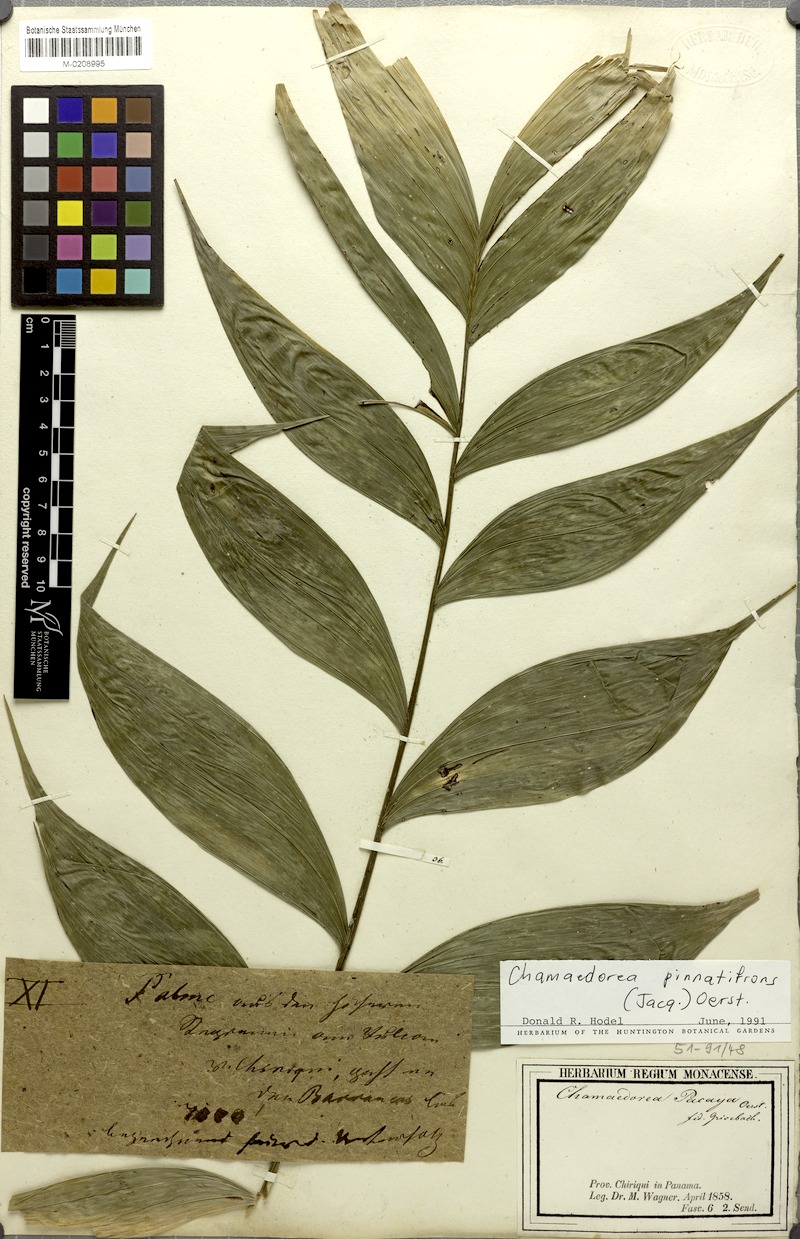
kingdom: Plantae
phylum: Tracheophyta
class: Liliopsida
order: Arecales
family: Arecaceae
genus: Chamaedorea
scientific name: Chamaedorea pinnatifrons
